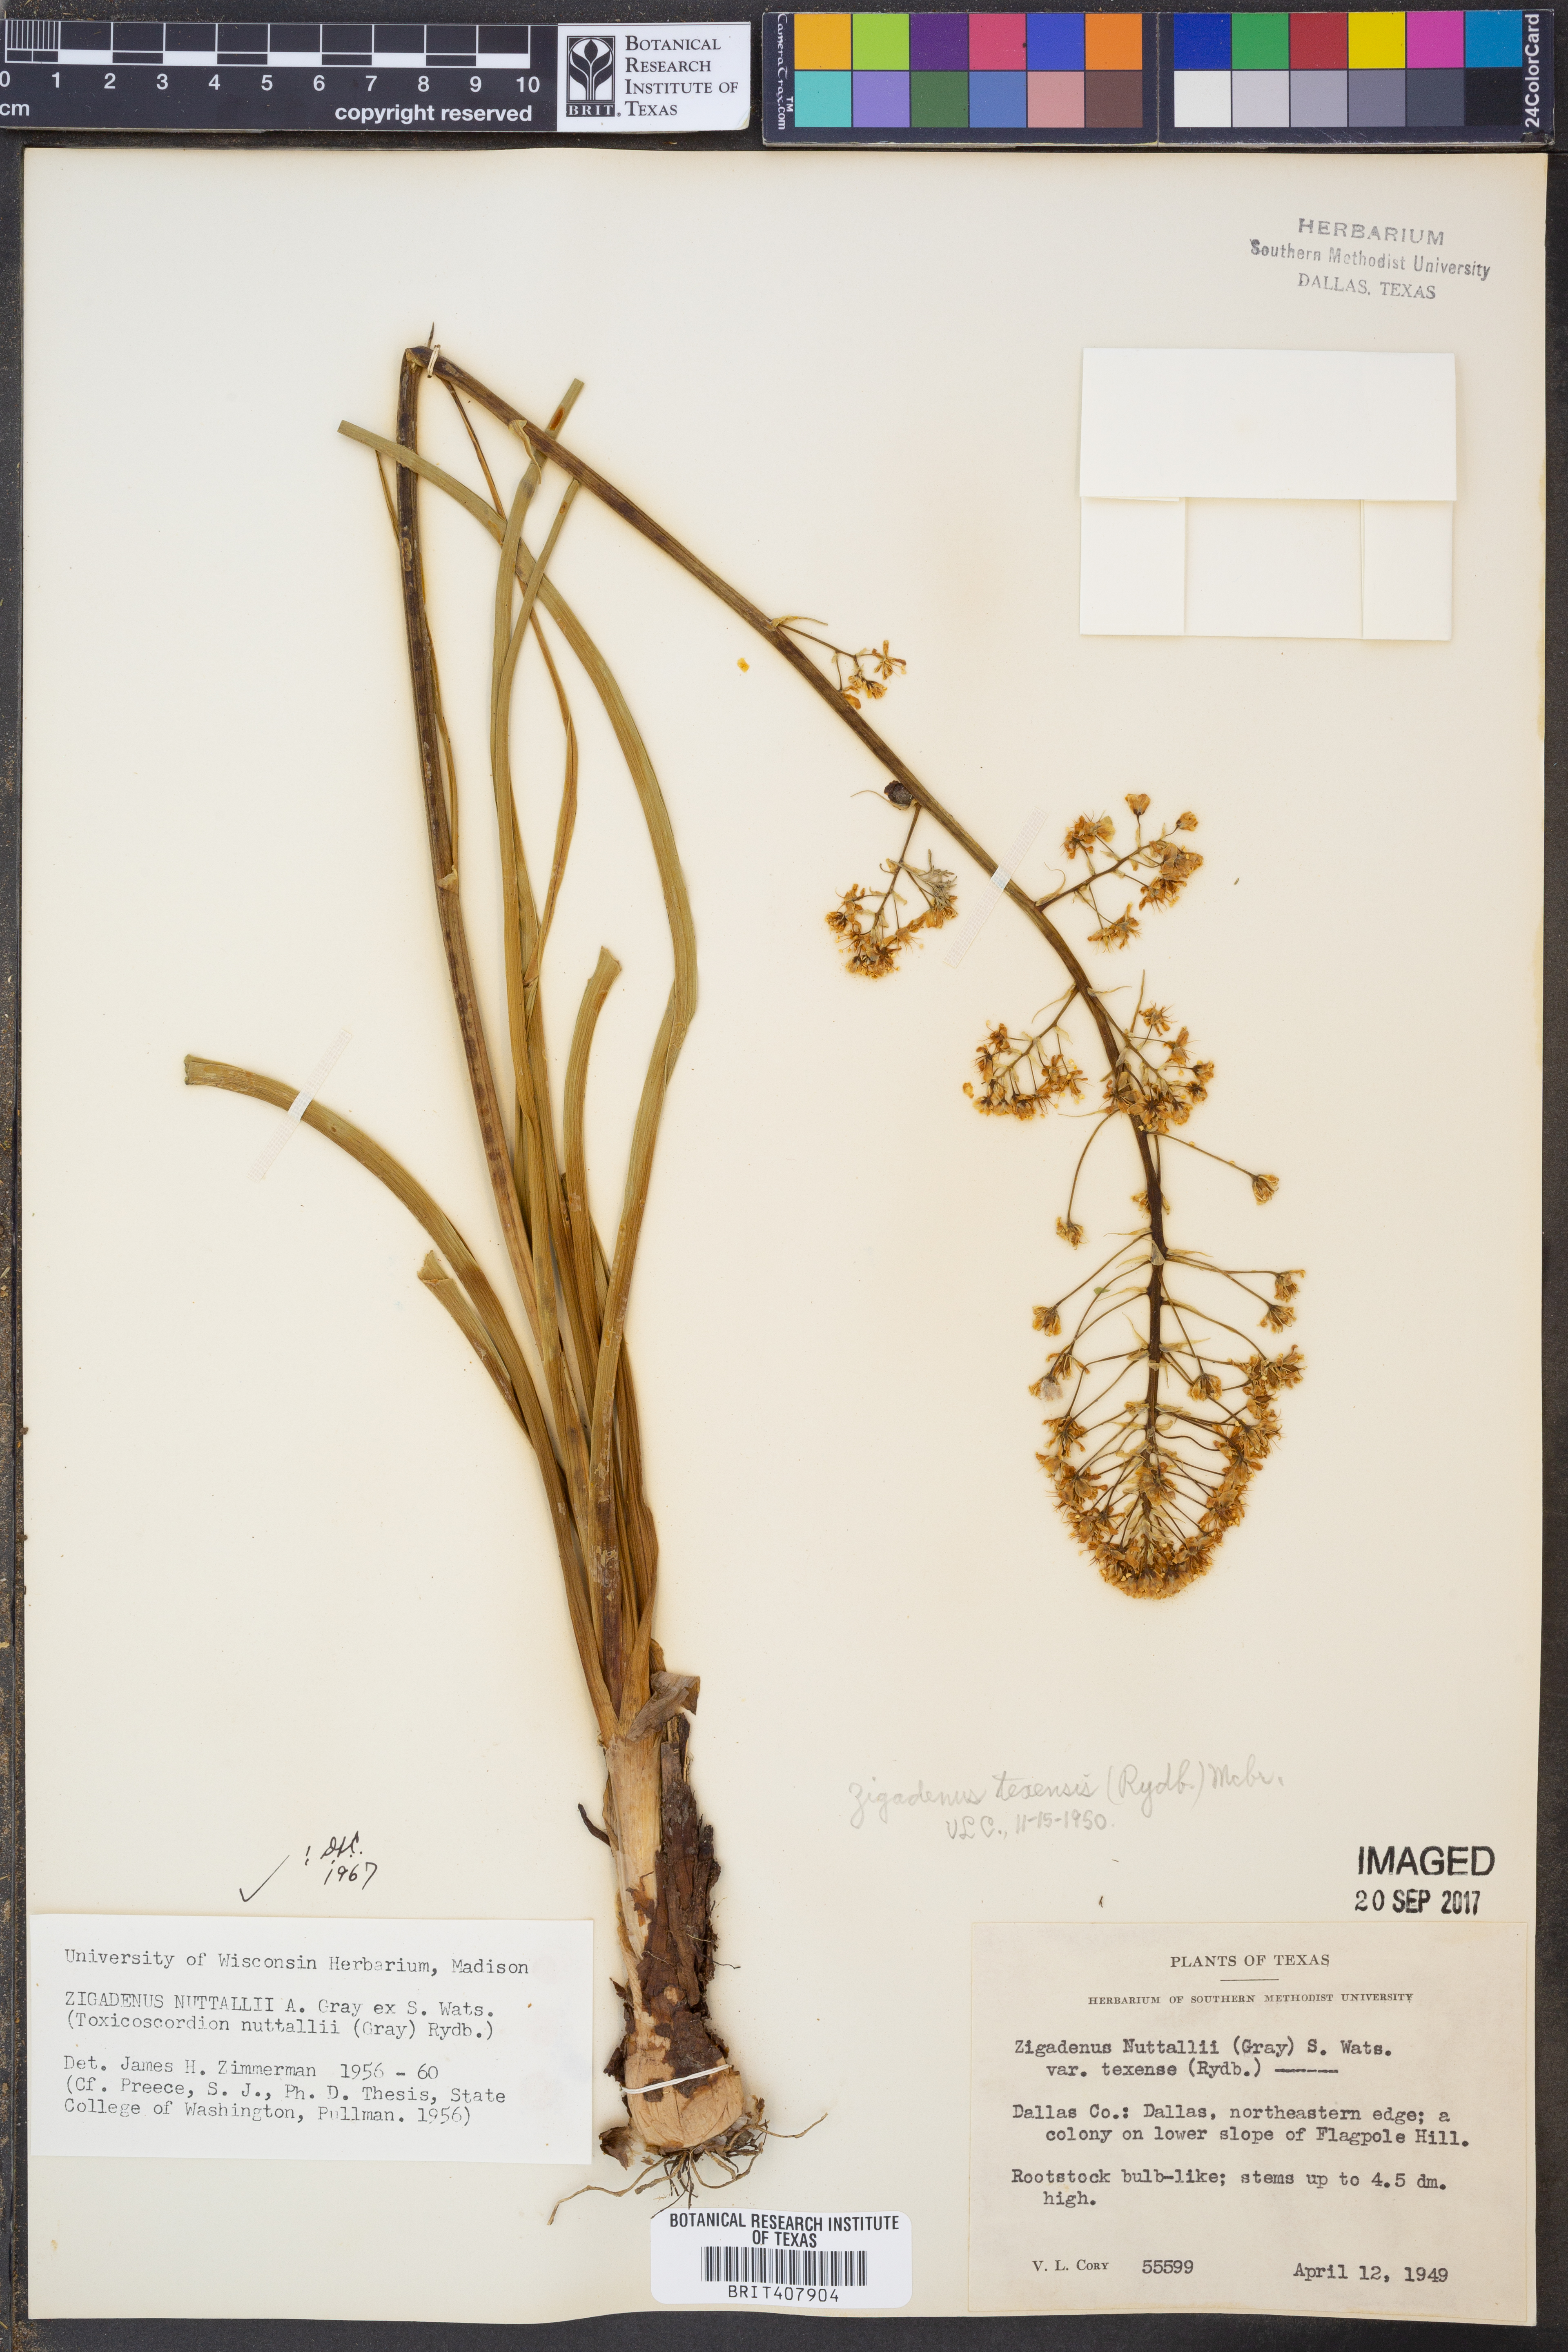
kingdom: Plantae
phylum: Tracheophyta
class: Liliopsida
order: Liliales
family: Melanthiaceae
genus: Toxicoscordion
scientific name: Toxicoscordion nuttallii
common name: Poison sego
